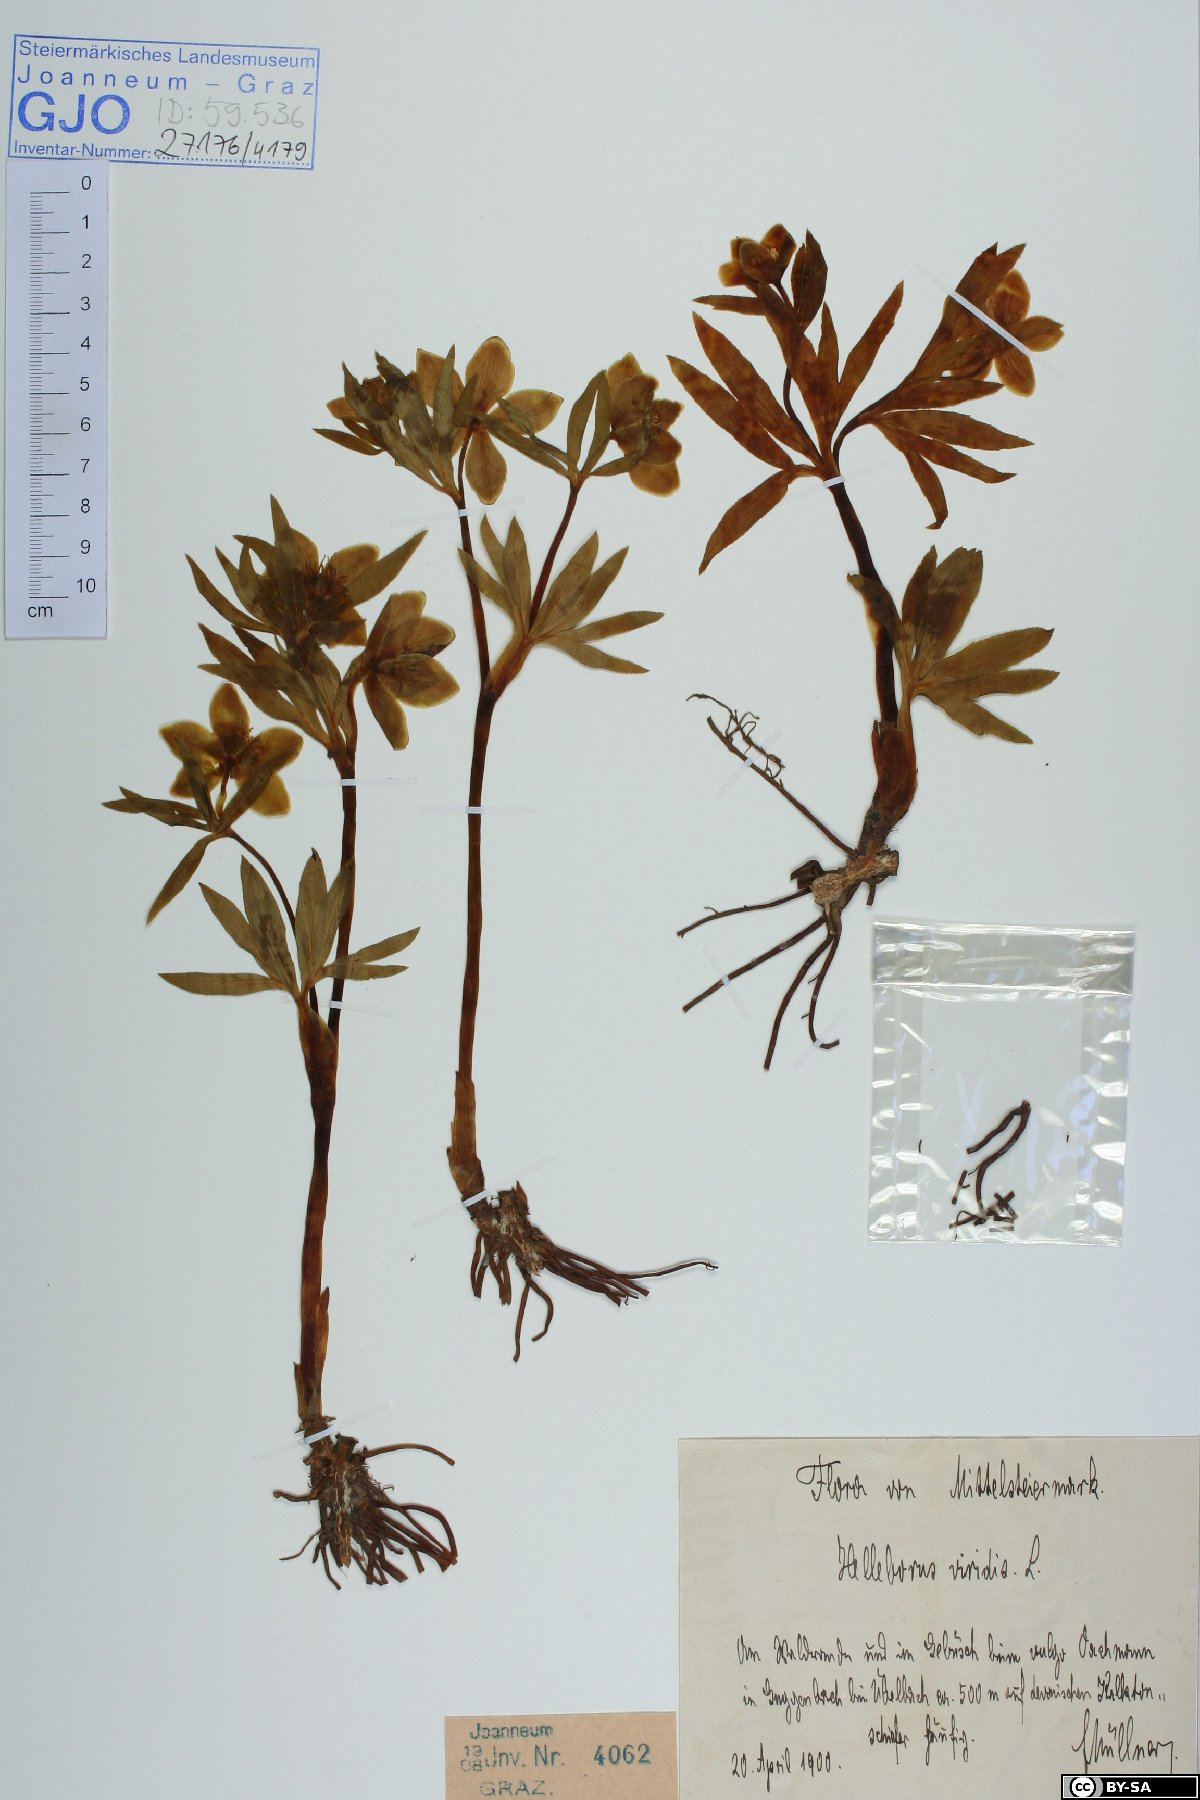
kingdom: Plantae
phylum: Tracheophyta
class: Magnoliopsida
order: Ranunculales
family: Ranunculaceae
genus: Helleborus
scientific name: Helleborus dumetorum
